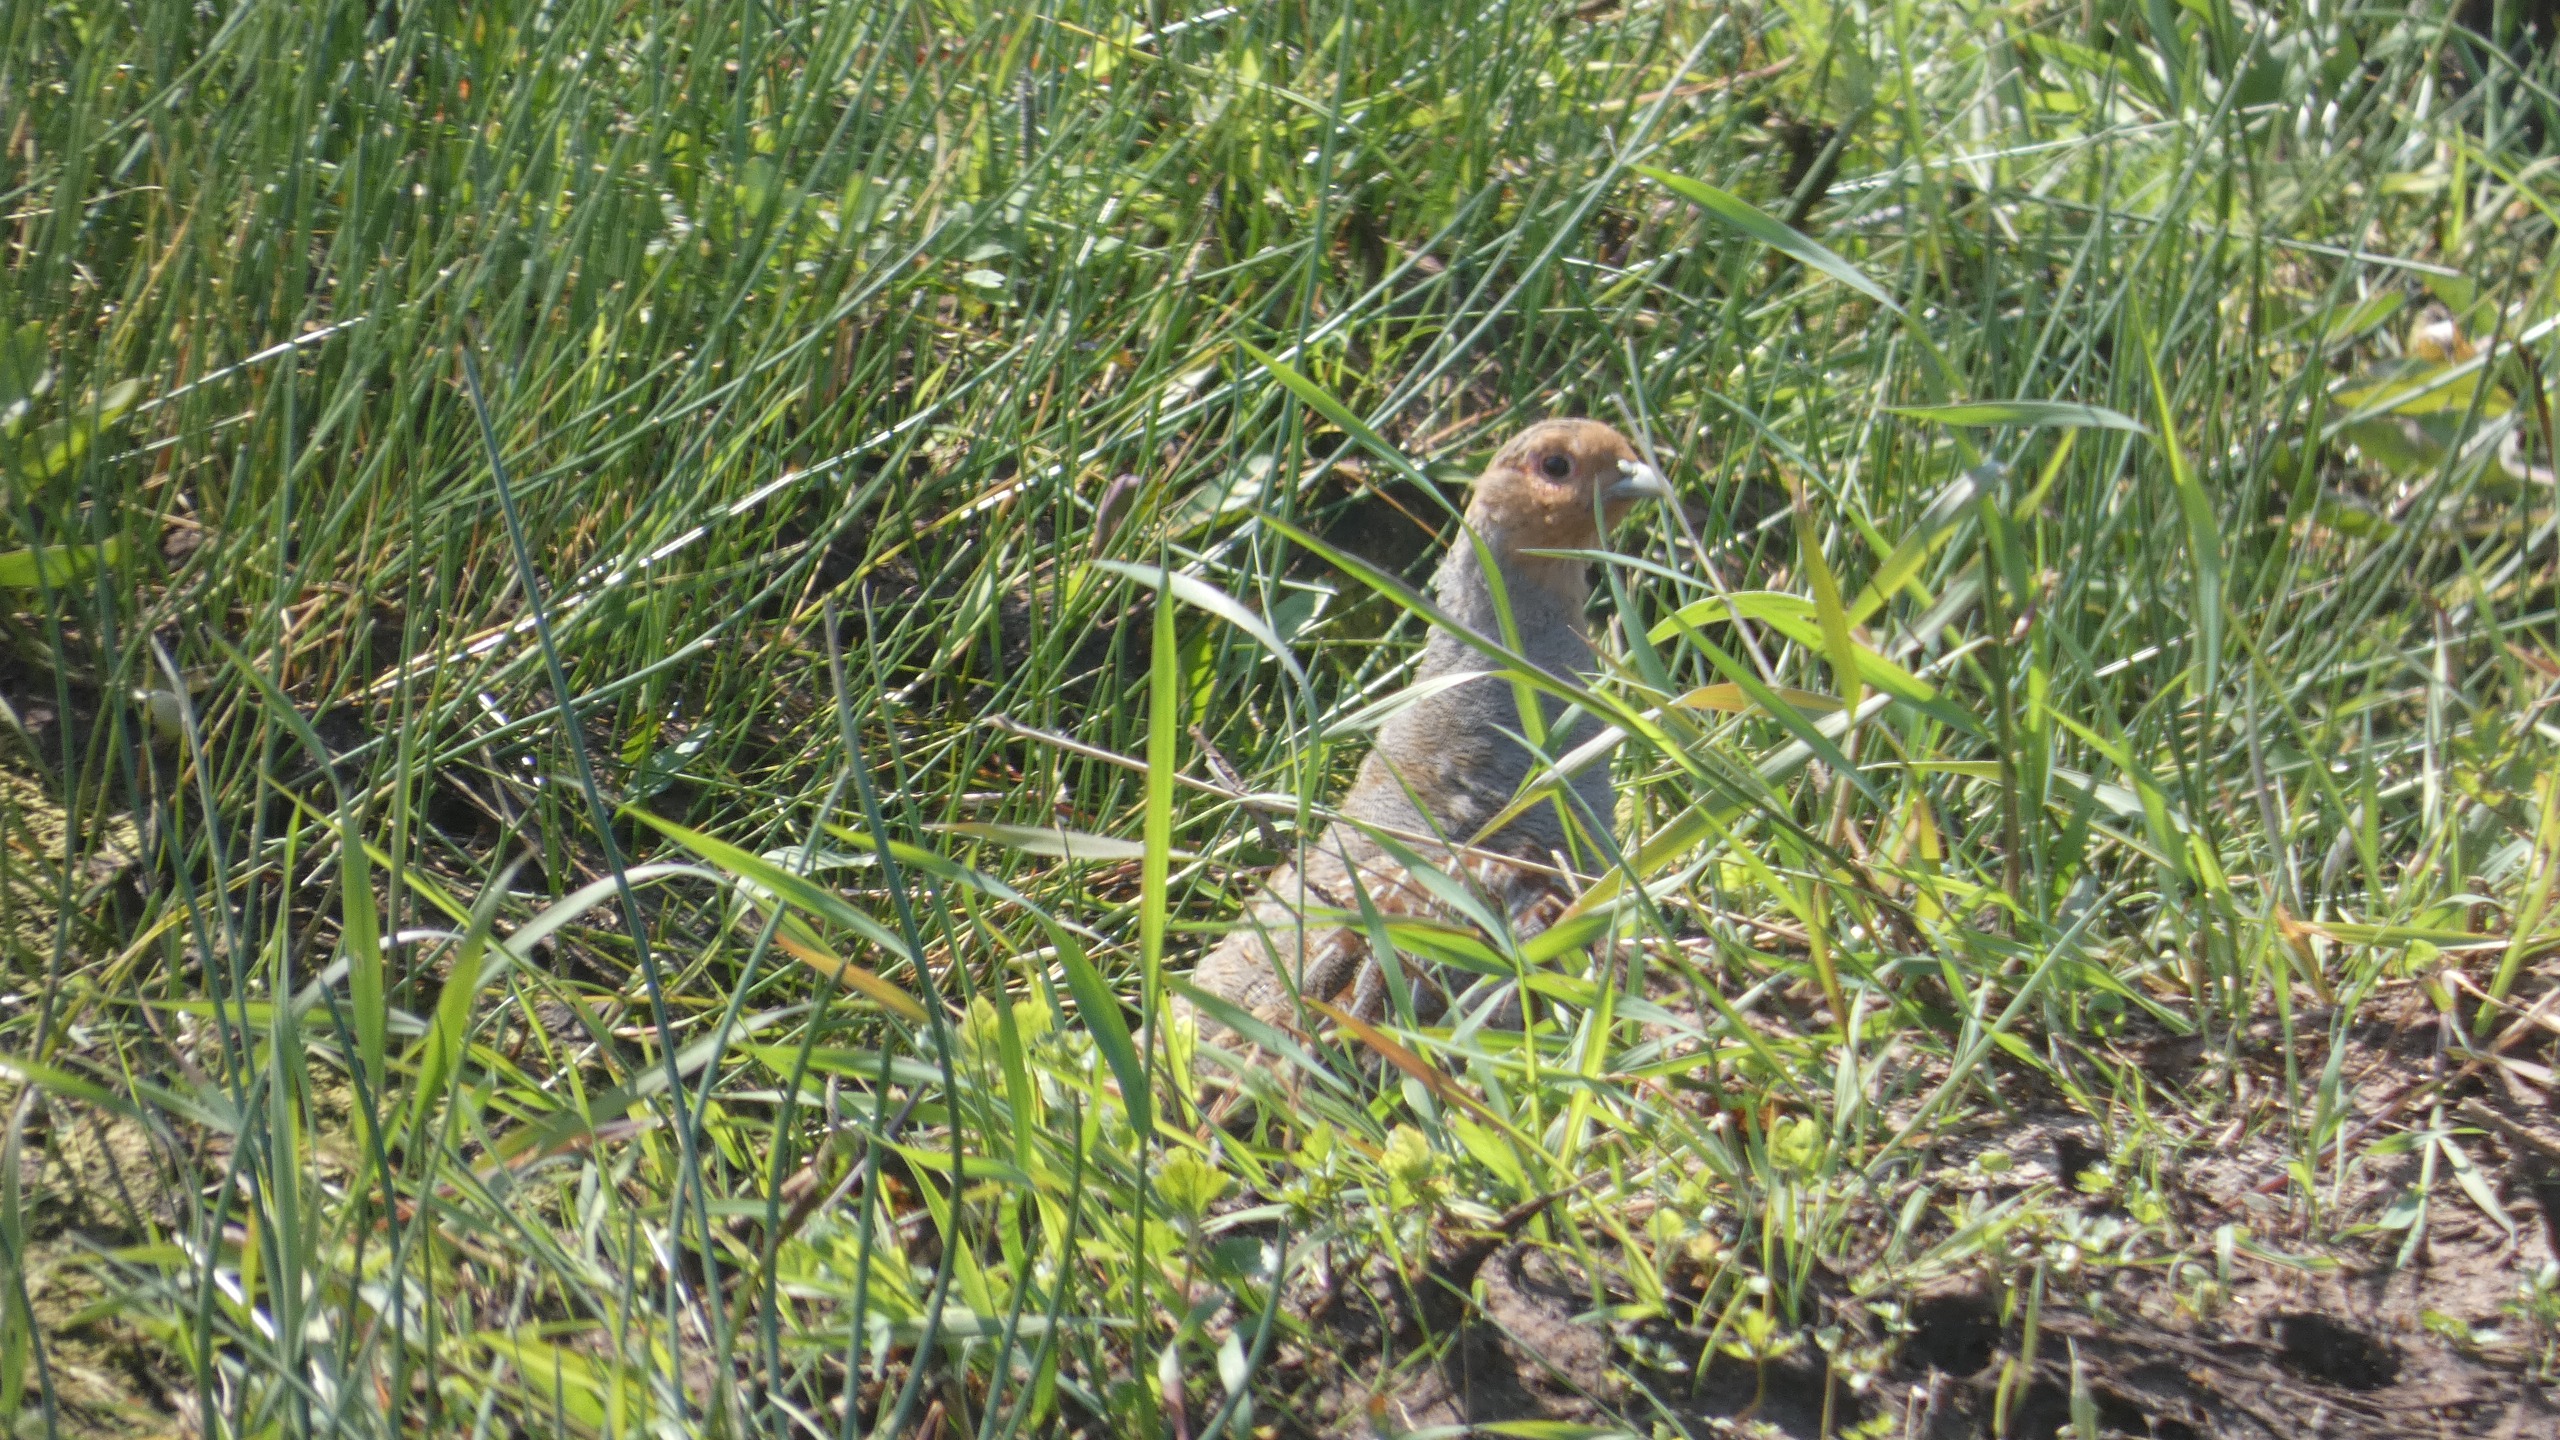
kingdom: Animalia
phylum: Chordata
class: Aves
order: Galliformes
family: Phasianidae
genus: Perdix
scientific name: Perdix perdix
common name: Agerhøne
